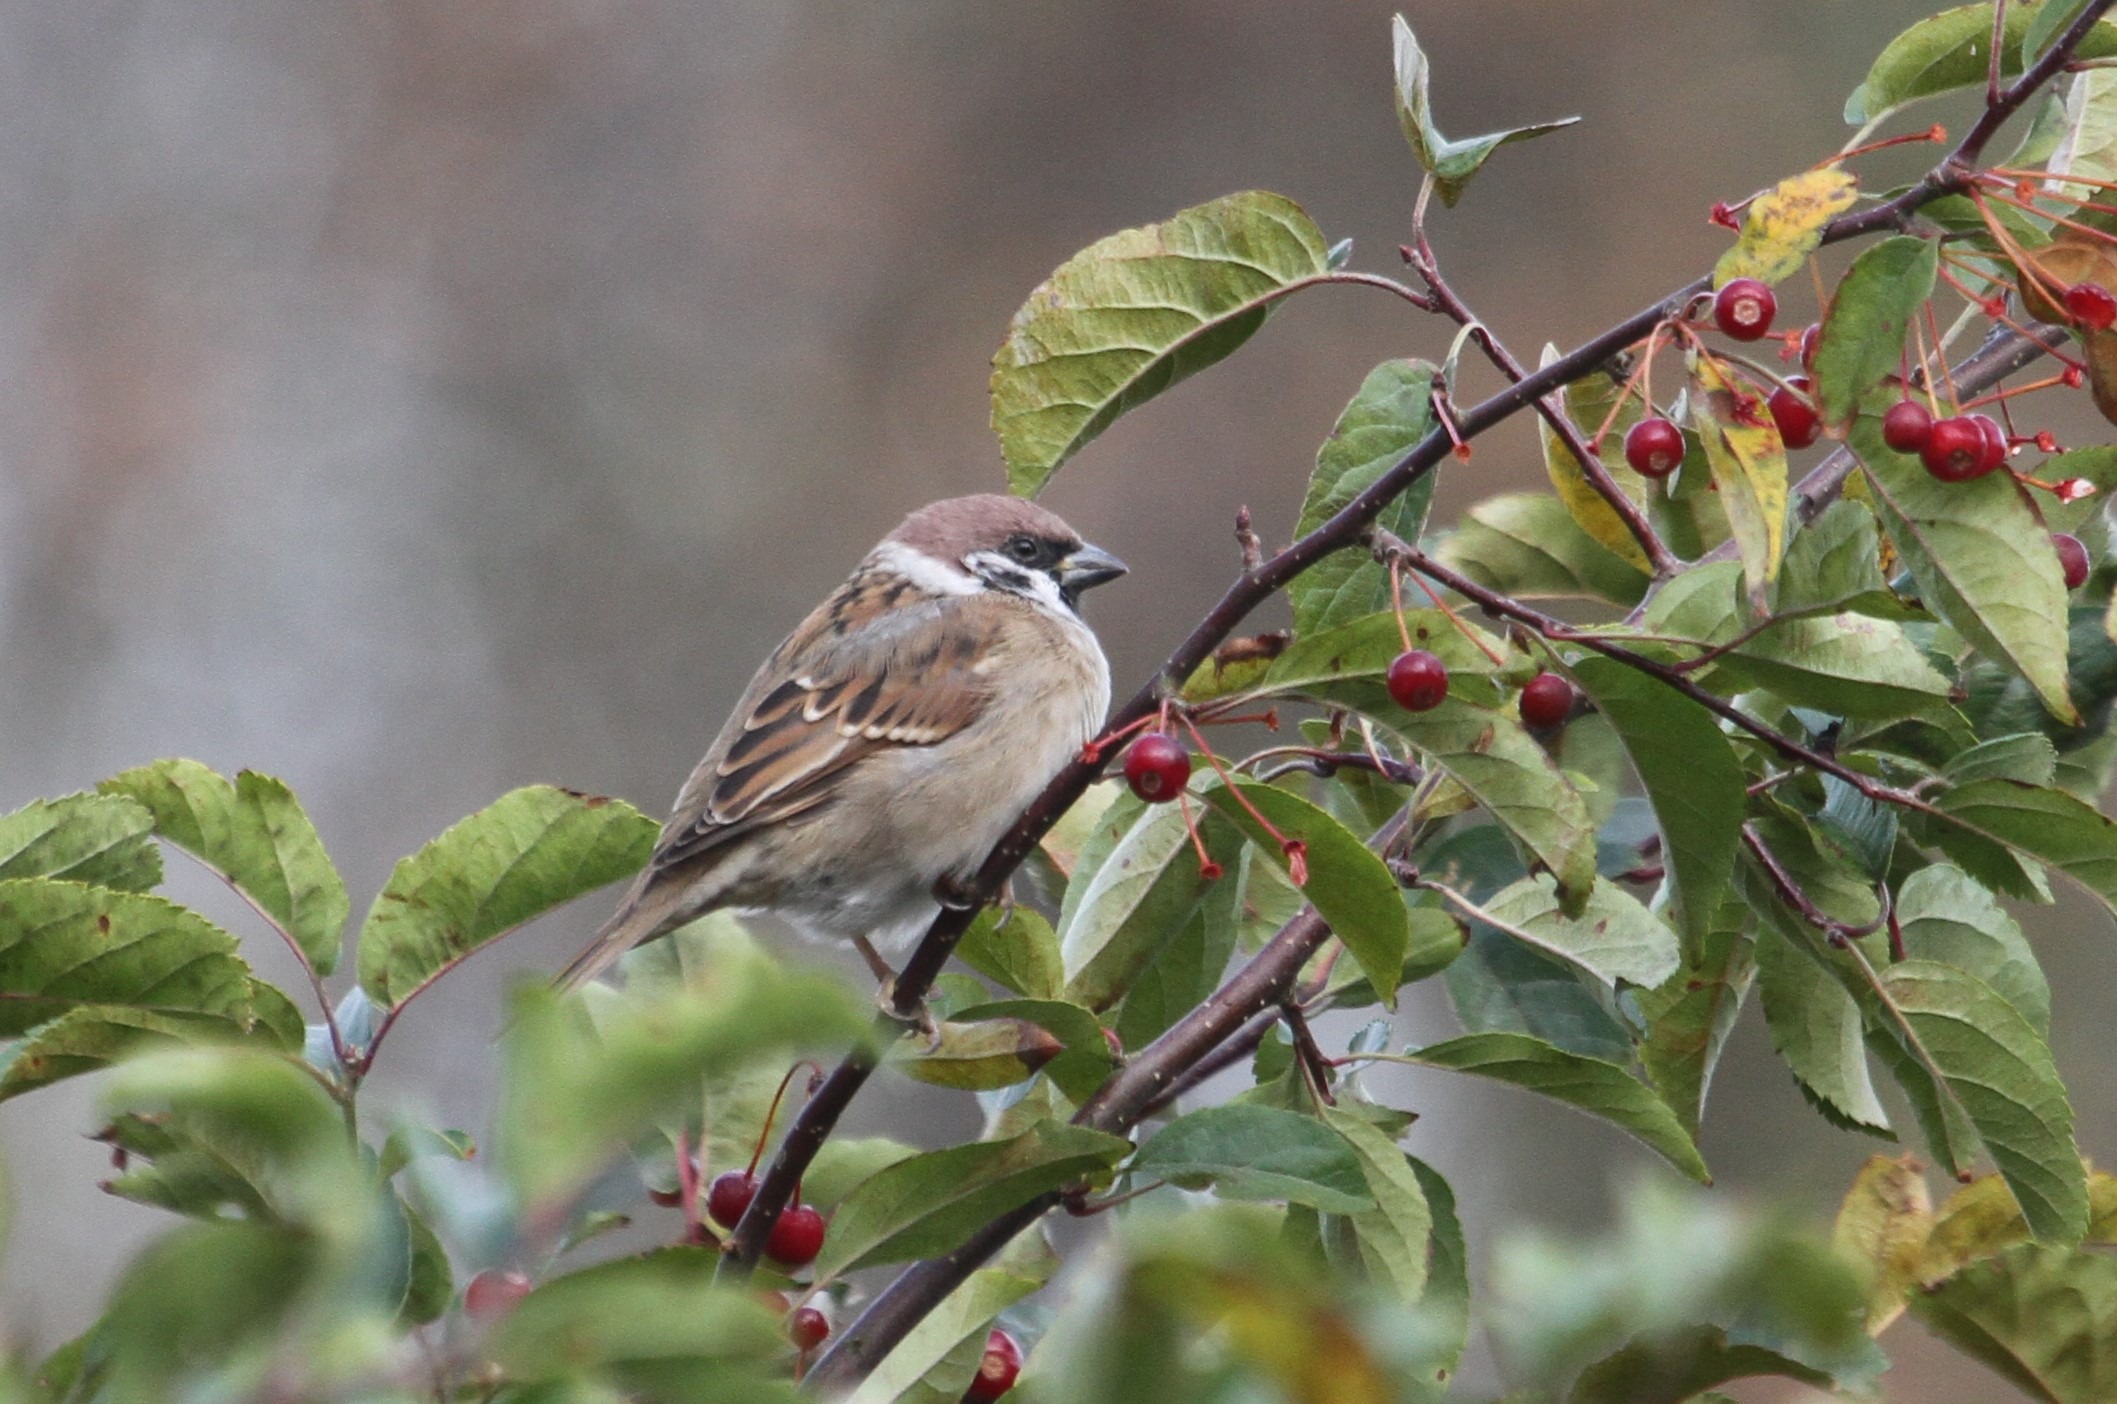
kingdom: Animalia
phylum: Chordata
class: Aves
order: Passeriformes
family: Passeridae
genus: Passer
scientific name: Passer montanus
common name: Skovspurv
